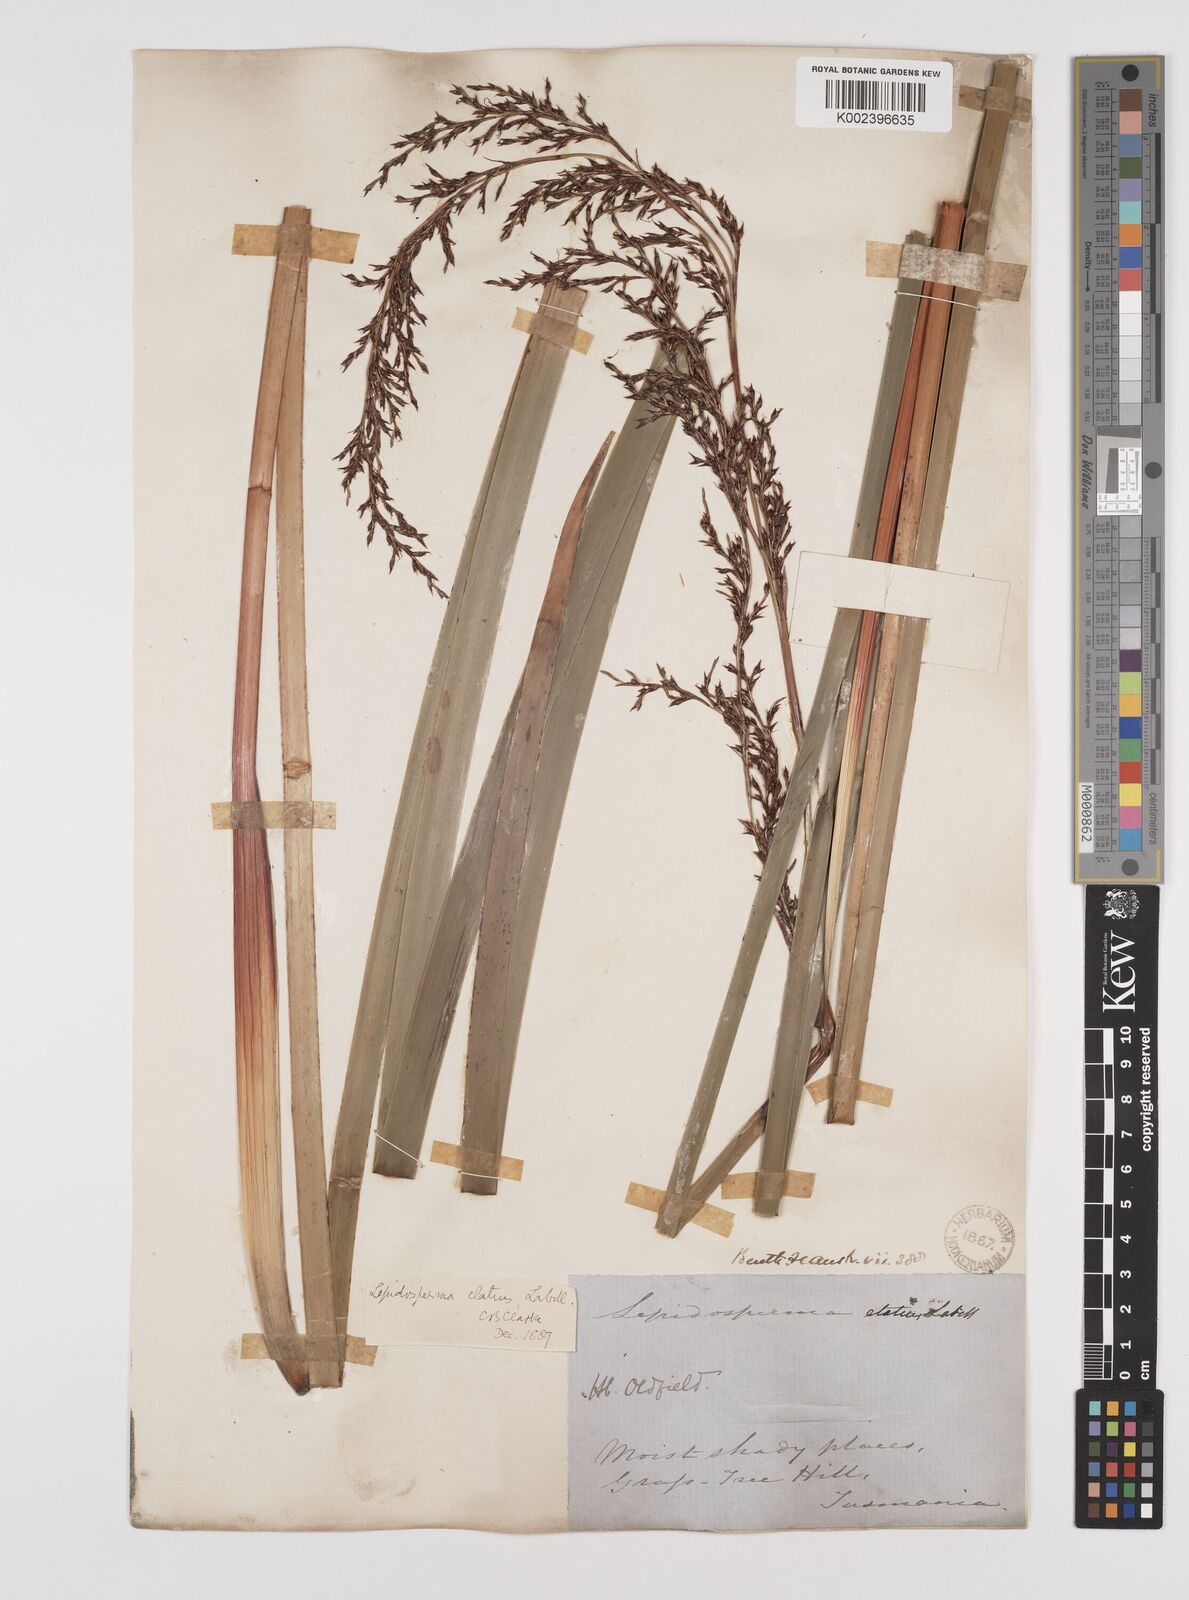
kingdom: Plantae
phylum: Tracheophyta
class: Liliopsida
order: Poales
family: Cyperaceae
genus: Lepidosperma
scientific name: Lepidosperma elatius
